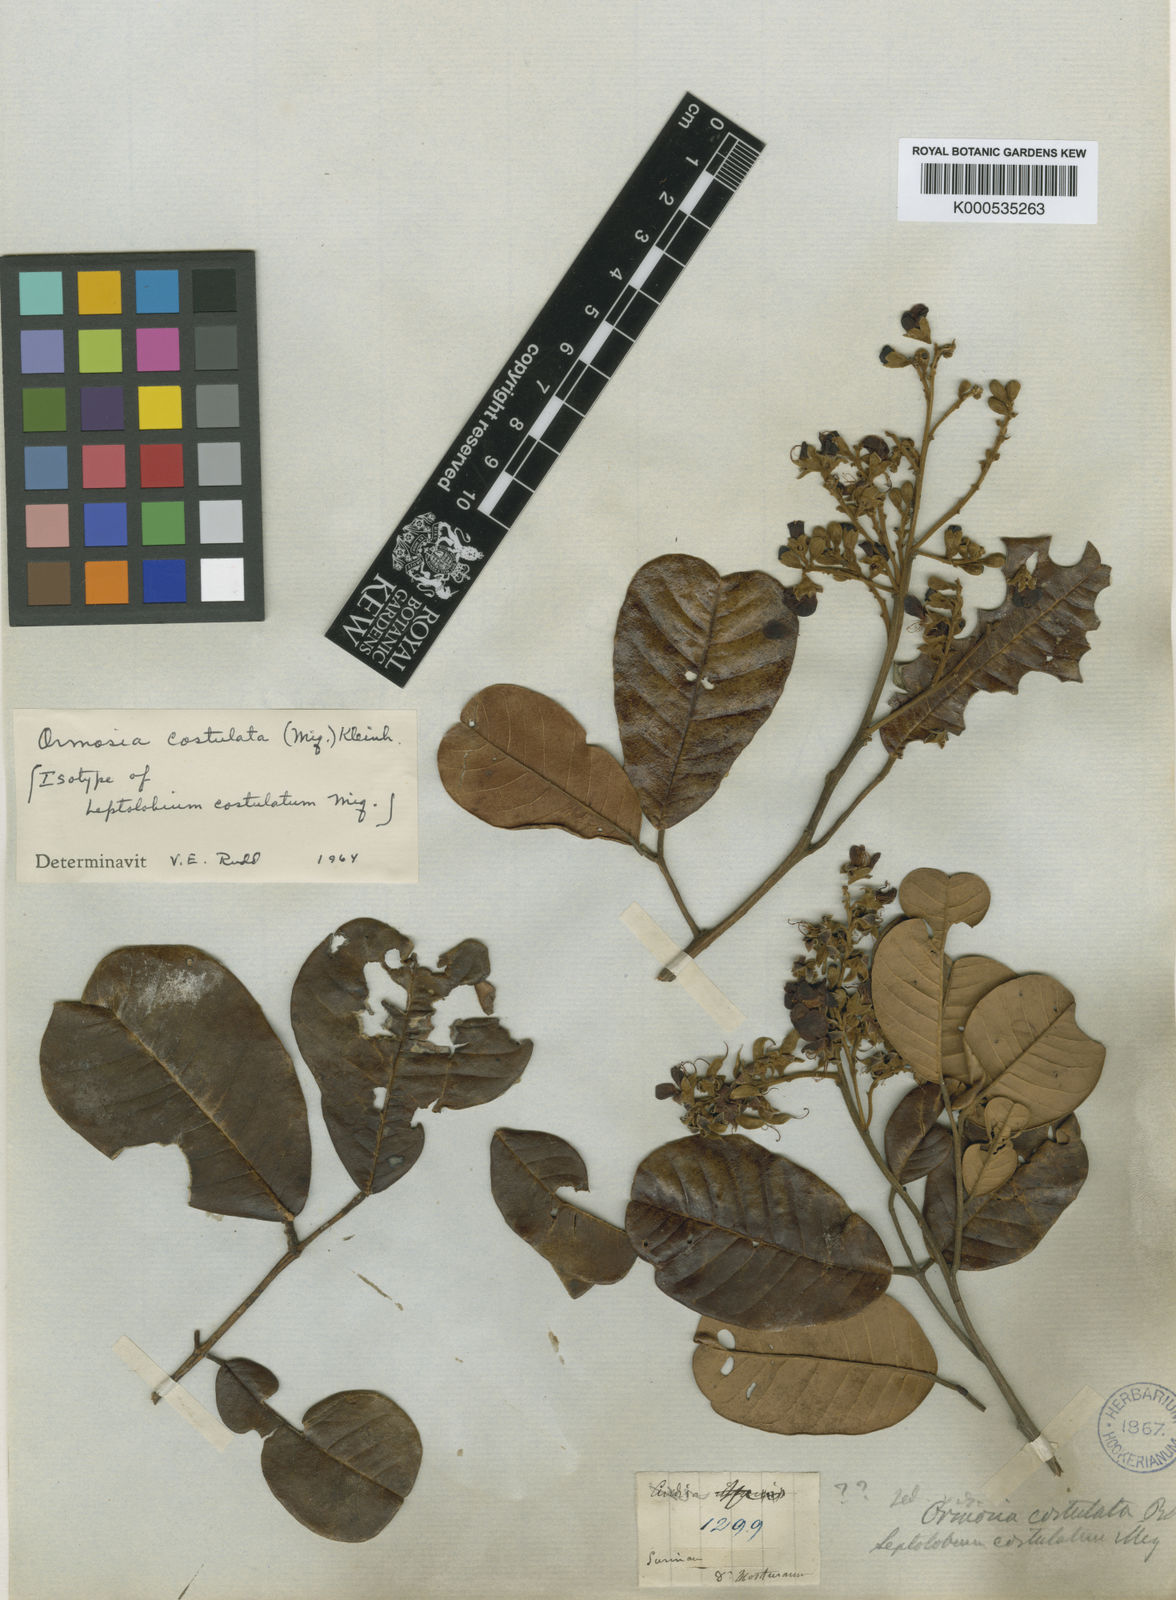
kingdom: Plantae
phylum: Tracheophyta
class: Magnoliopsida
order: Fabales
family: Fabaceae
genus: Ormosia
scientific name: Ormosia costulata
